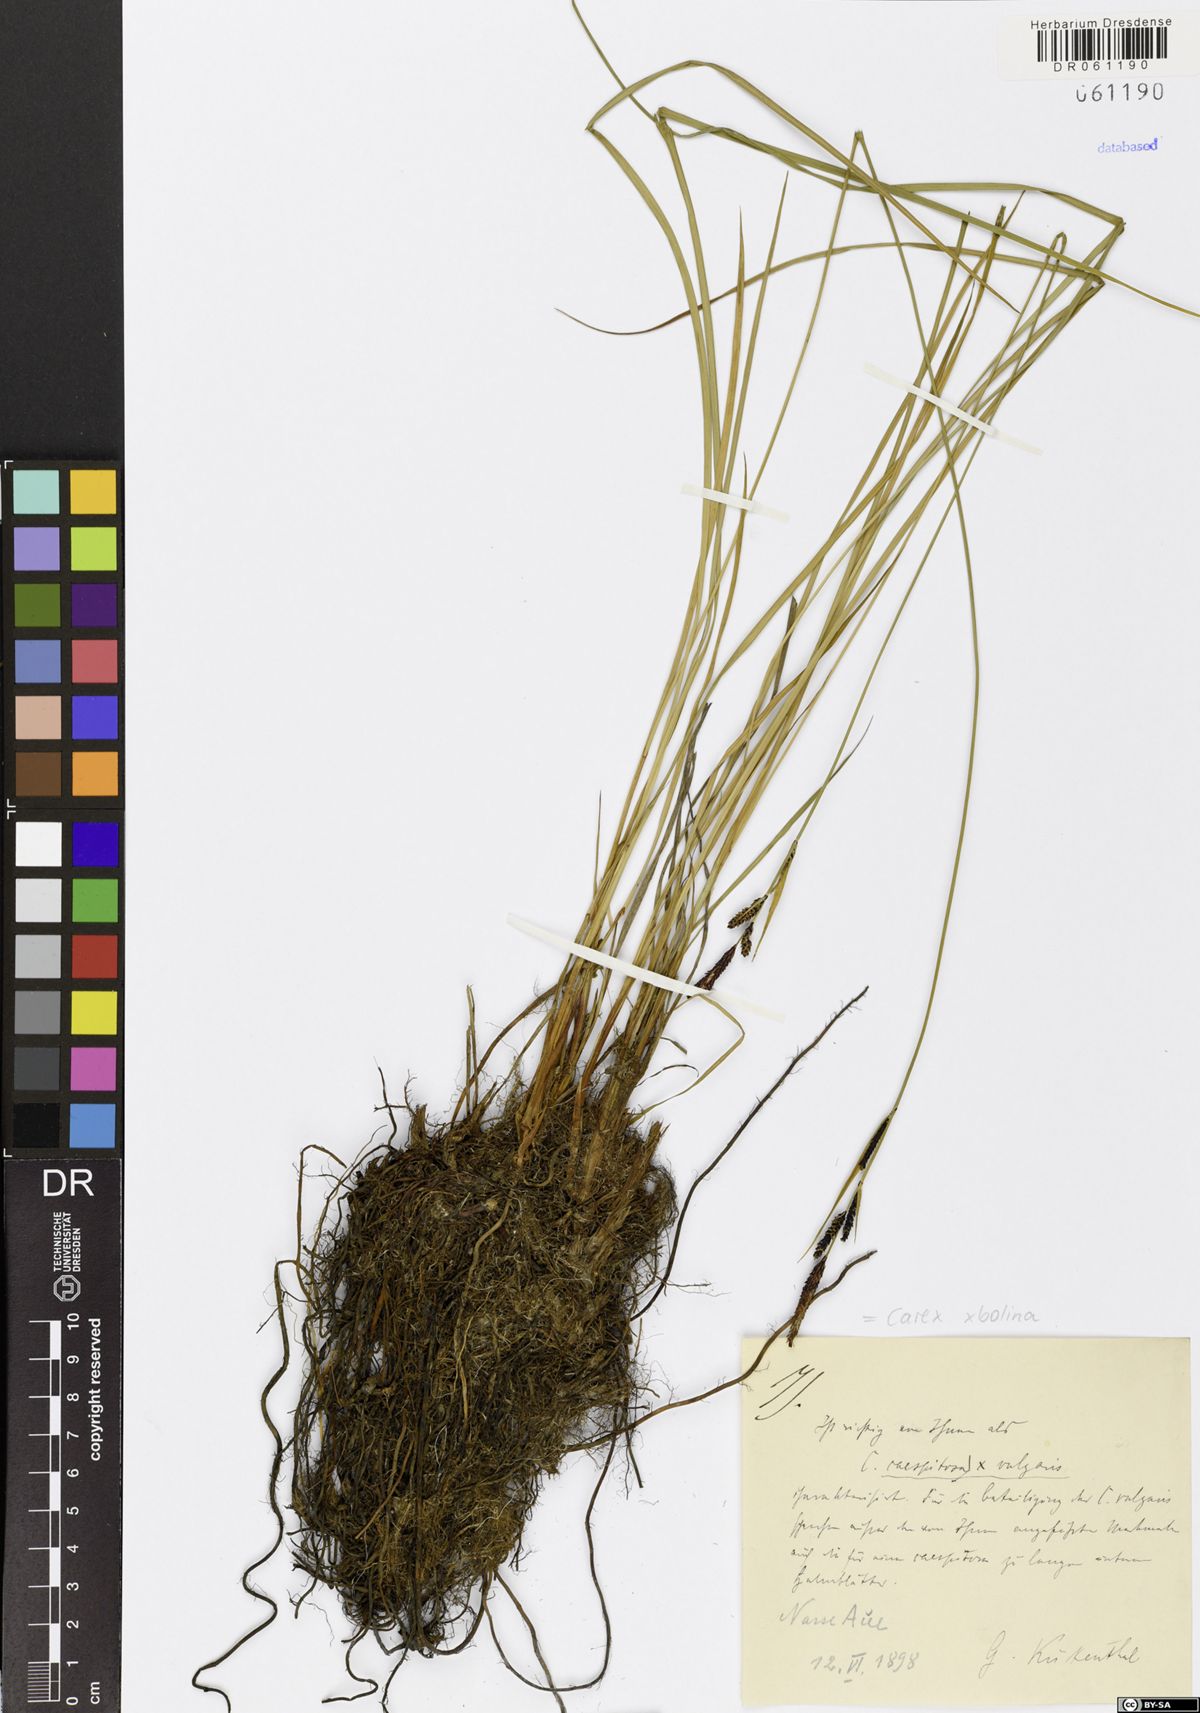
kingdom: Plantae
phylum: Tracheophyta
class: Liliopsida
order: Poales
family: Cyperaceae
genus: Carex
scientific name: Carex bolina
